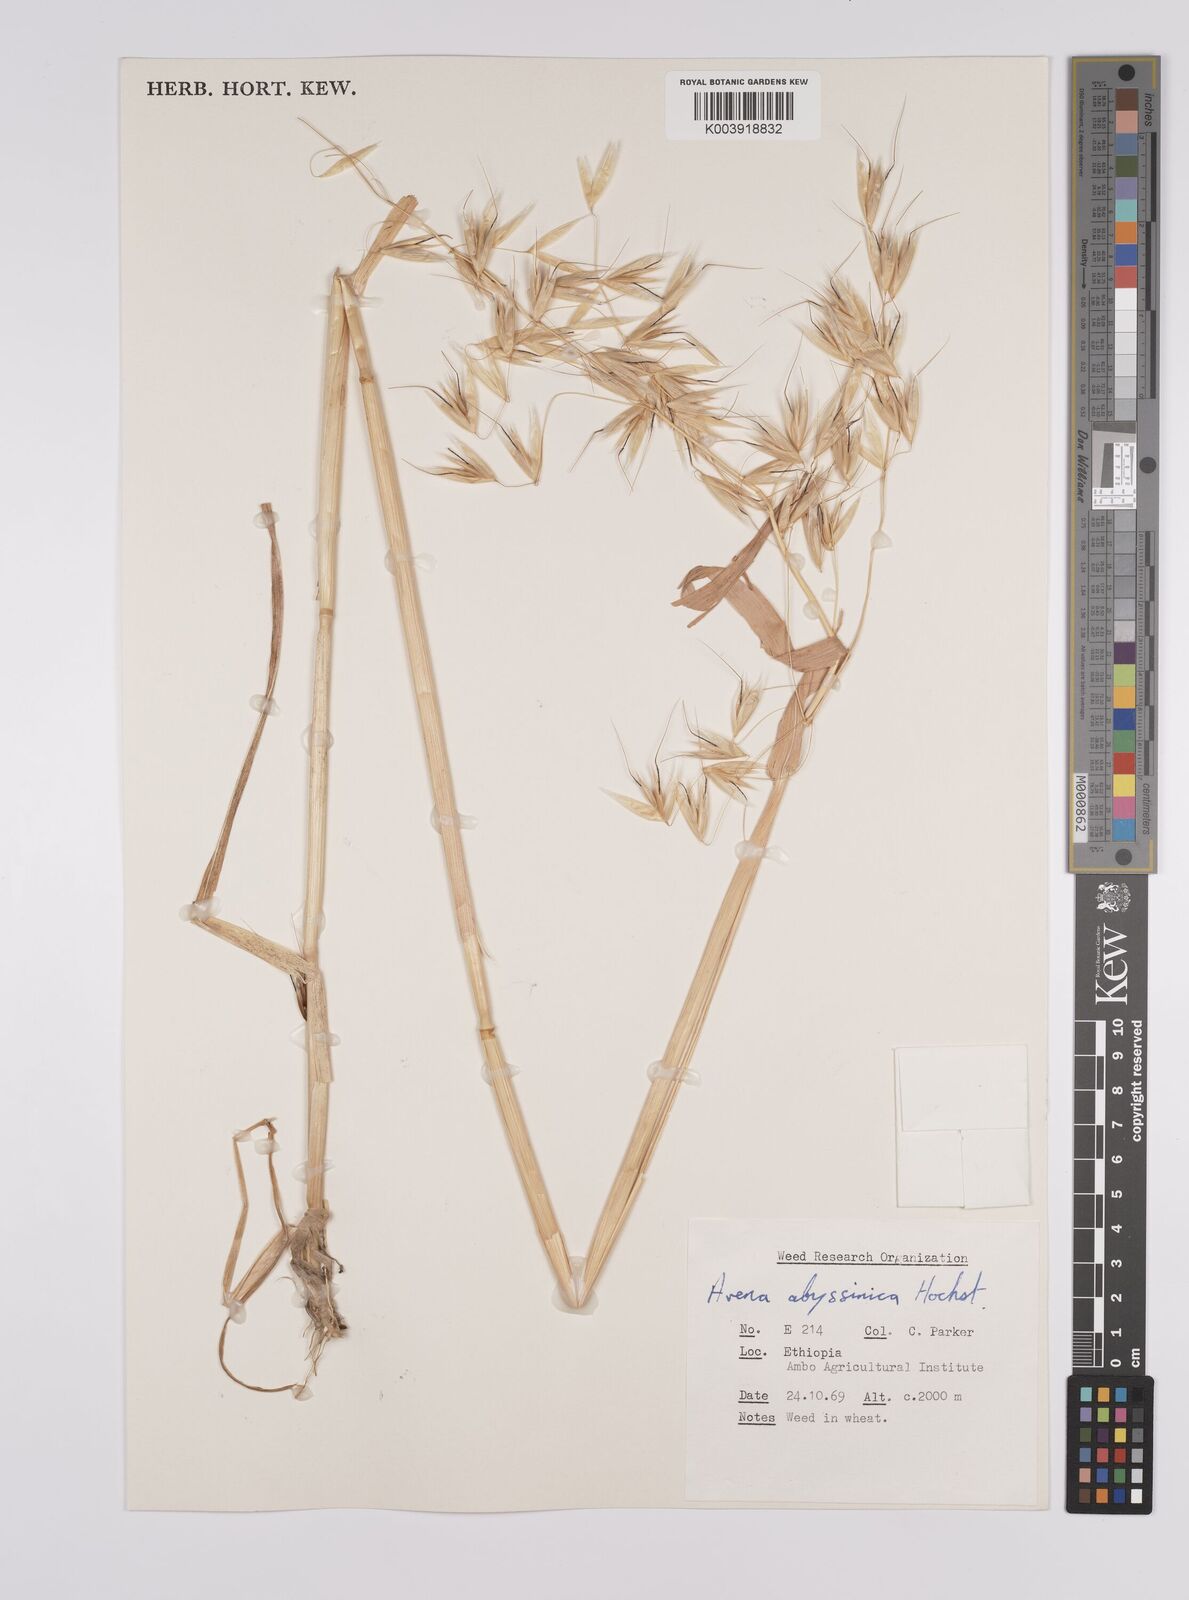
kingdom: Plantae
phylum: Tracheophyta
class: Liliopsida
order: Poales
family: Poaceae
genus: Avena
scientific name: Avena abyssinica
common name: Ethiopian oat
